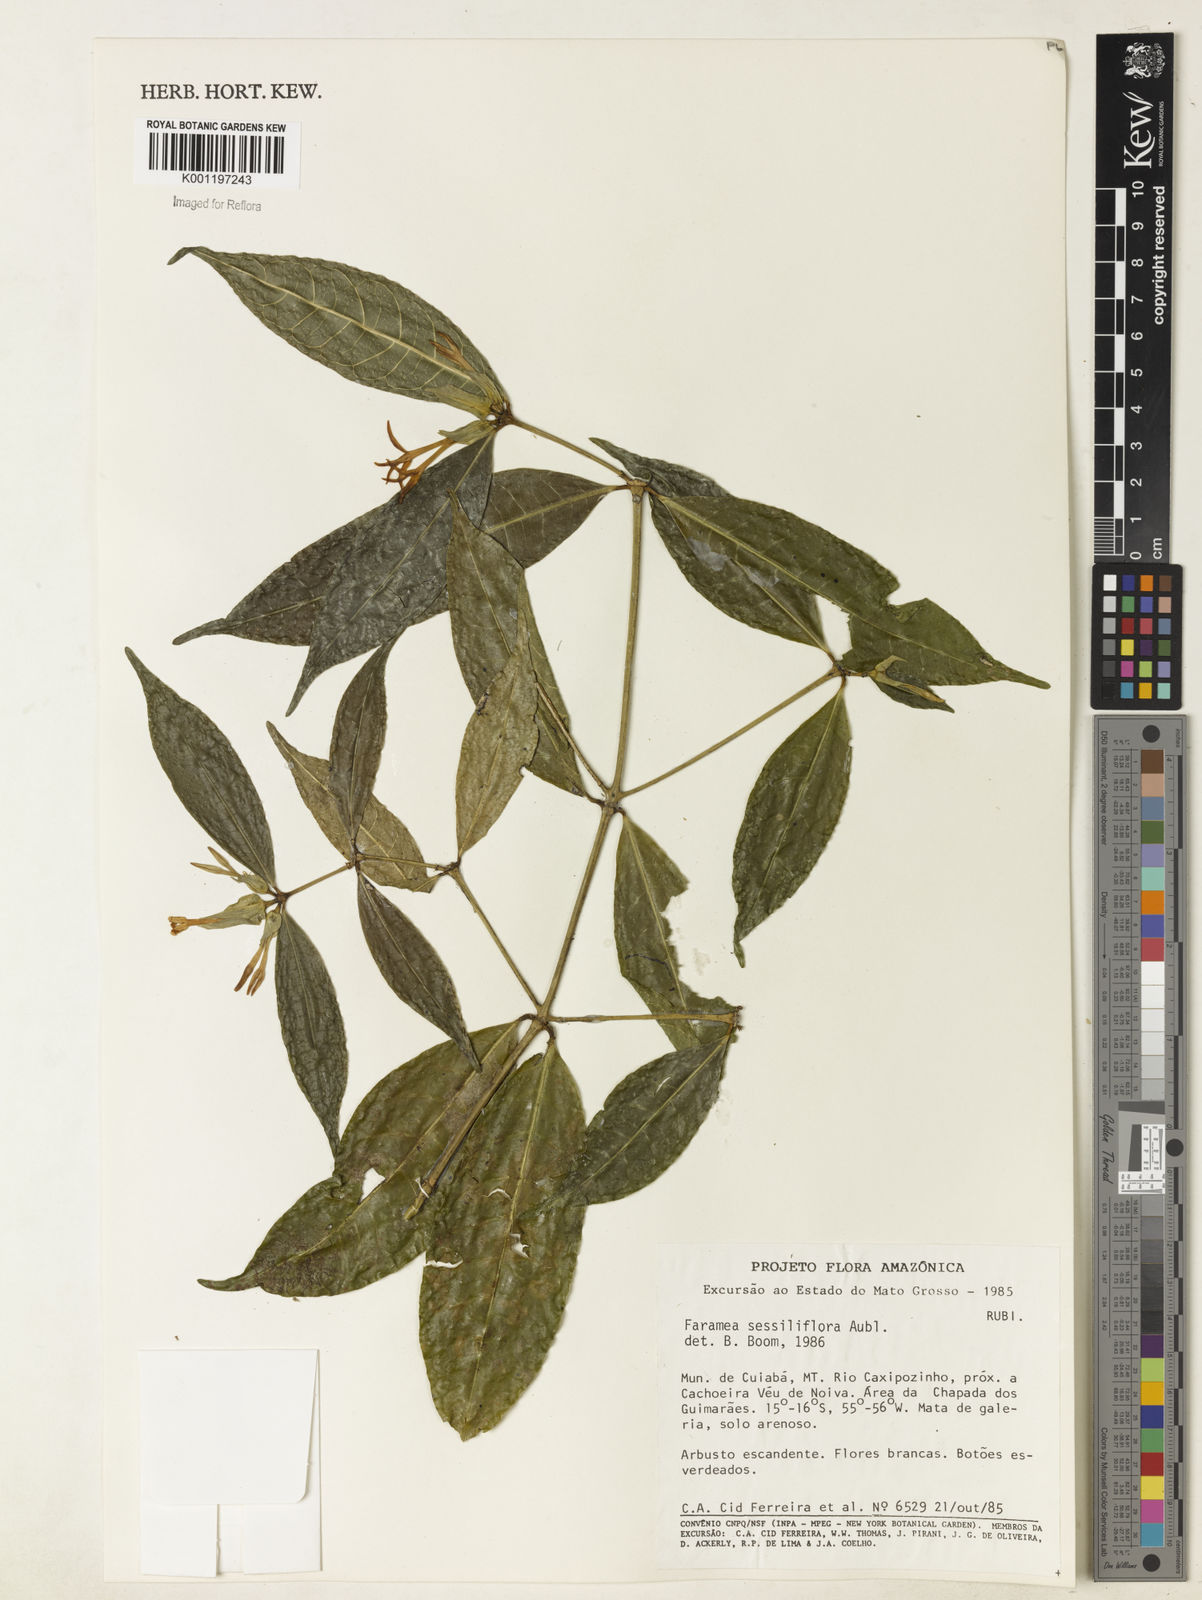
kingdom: Plantae
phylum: Tracheophyta
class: Magnoliopsida
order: Gentianales
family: Rubiaceae
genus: Faramea
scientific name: Faramea sessilifolia
